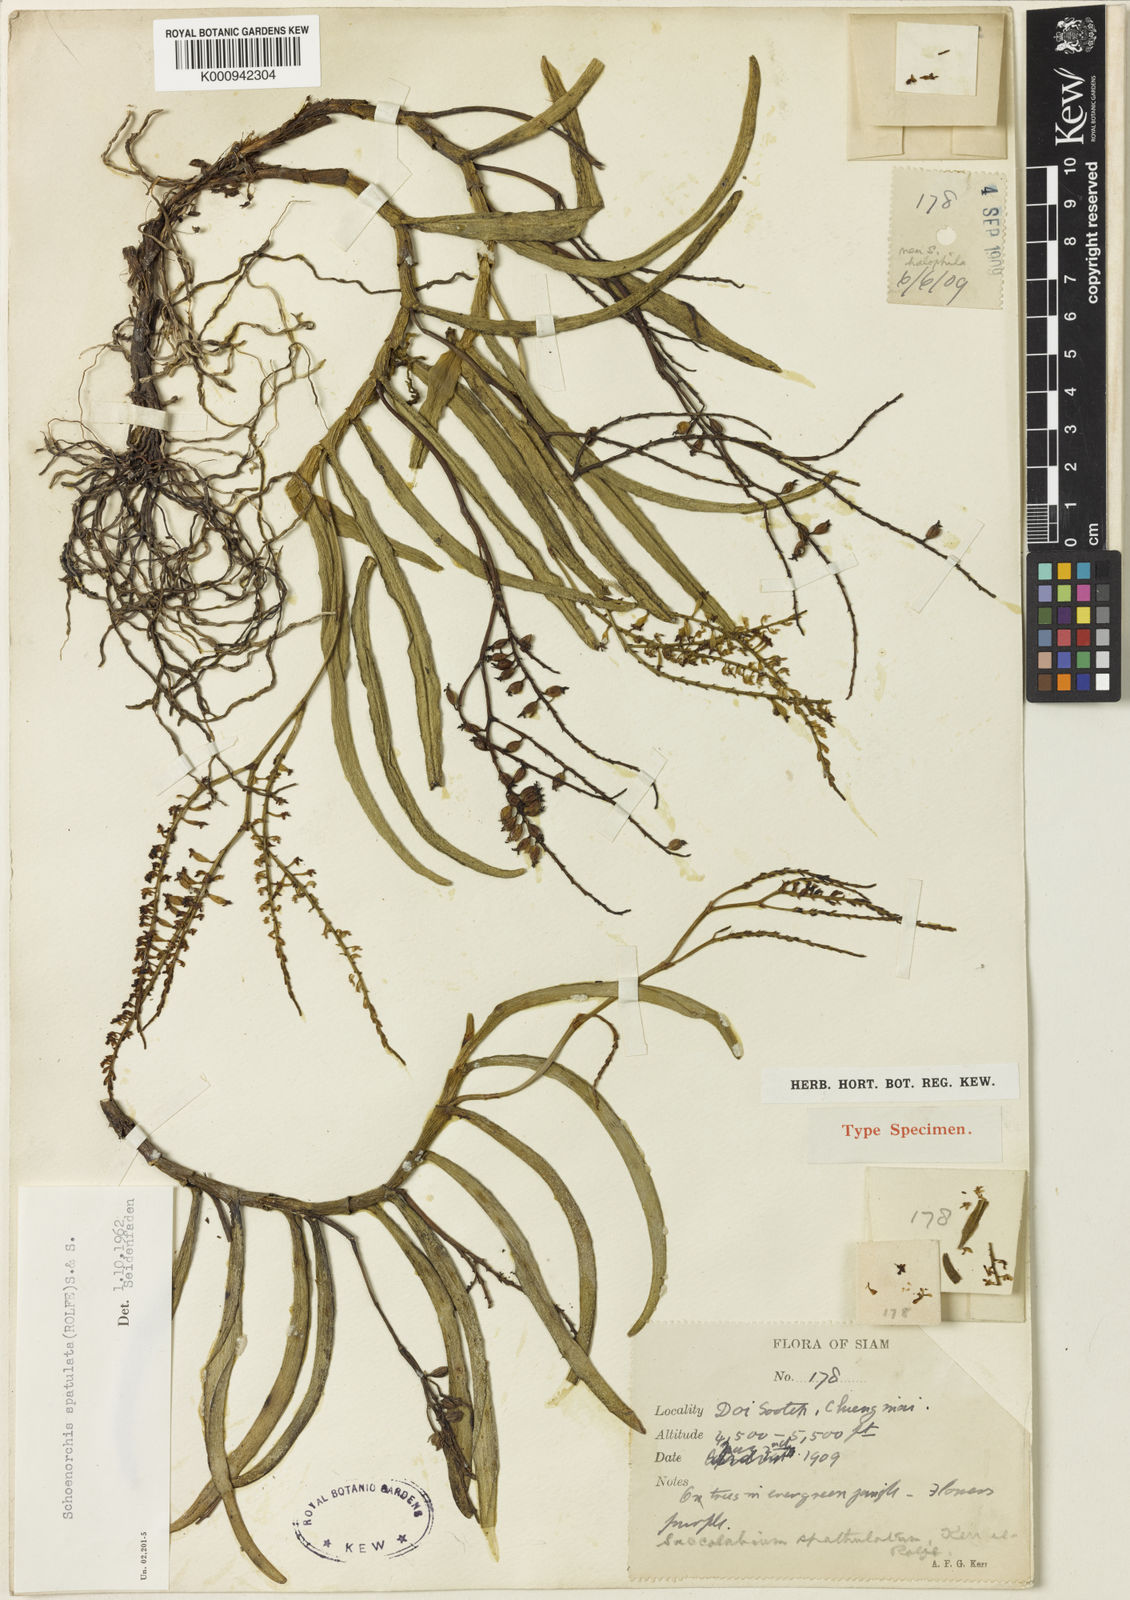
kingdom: Plantae
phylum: Tracheophyta
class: Liliopsida
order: Asparagales
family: Orchidaceae
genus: Schoenorchis
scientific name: Schoenorchis gemmata
